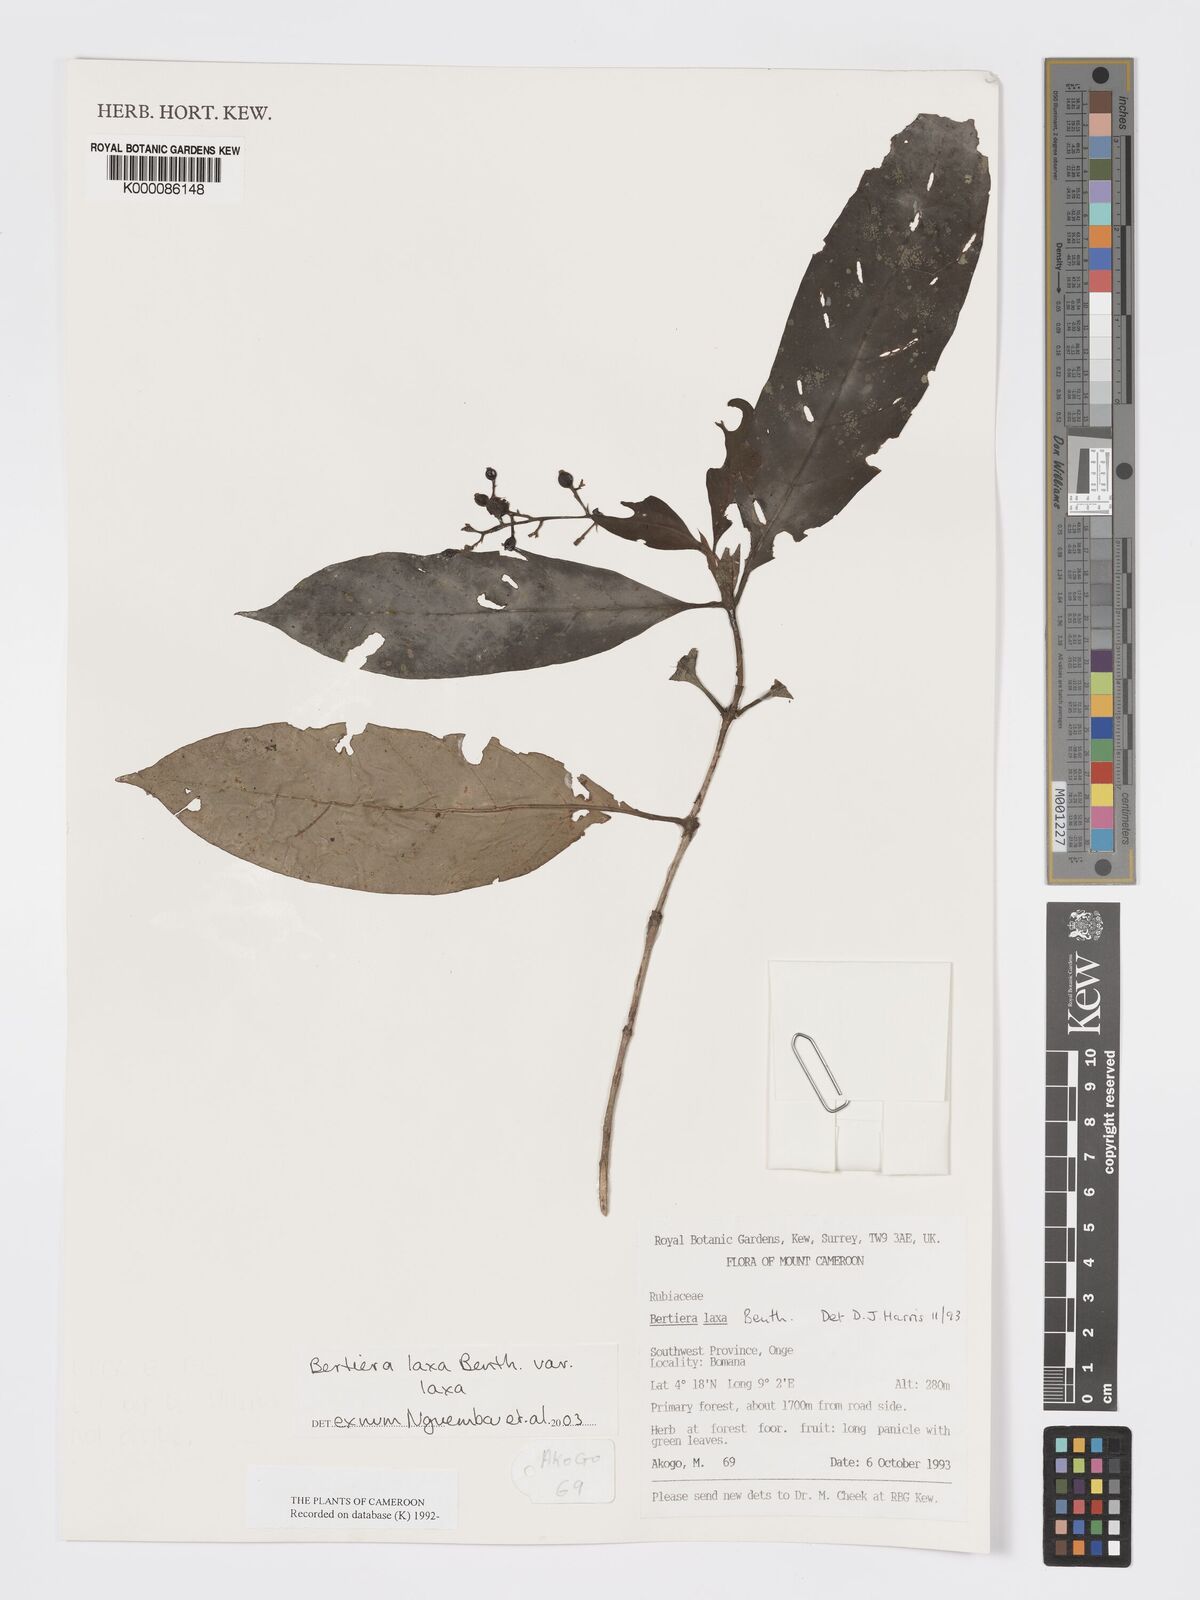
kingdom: Plantae
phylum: Tracheophyta
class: Magnoliopsida
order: Gentianales
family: Rubiaceae
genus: Bertiera
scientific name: Bertiera laxa
